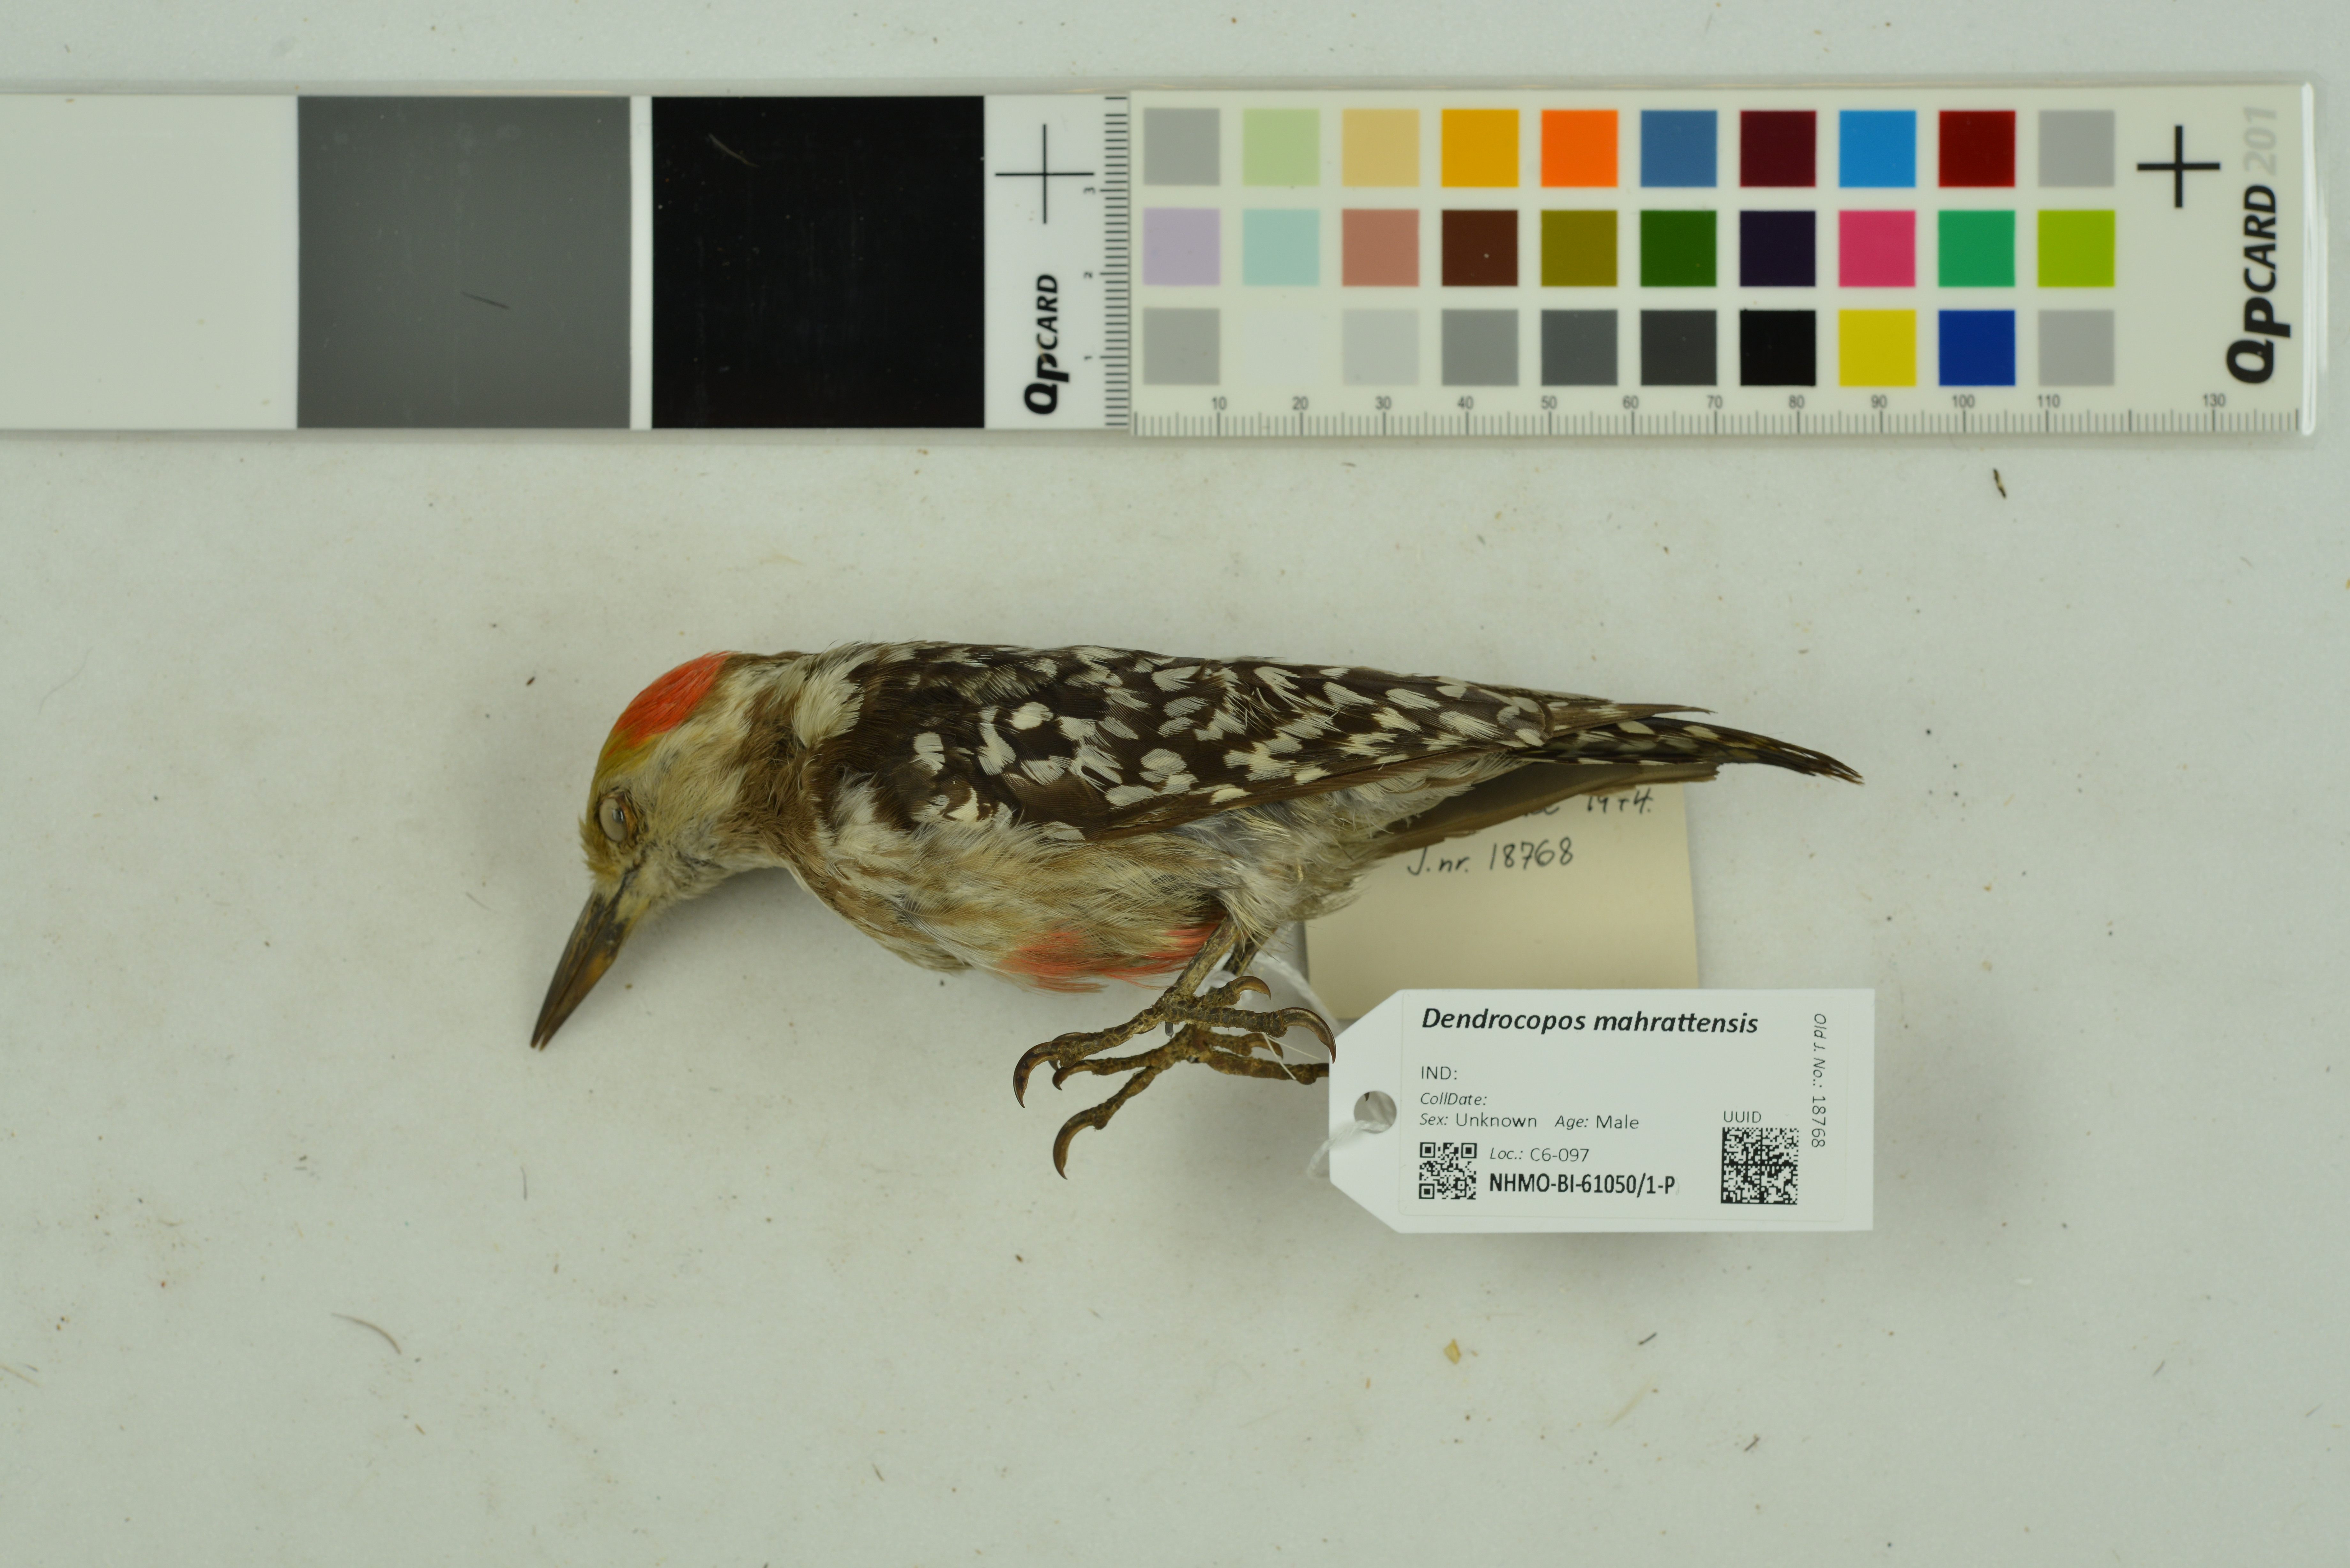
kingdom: Animalia
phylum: Chordata
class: Aves
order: Piciformes
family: Picidae
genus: Leiopicus
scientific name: Leiopicus mahrattensis
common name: Yellow-crowned woodpecker
